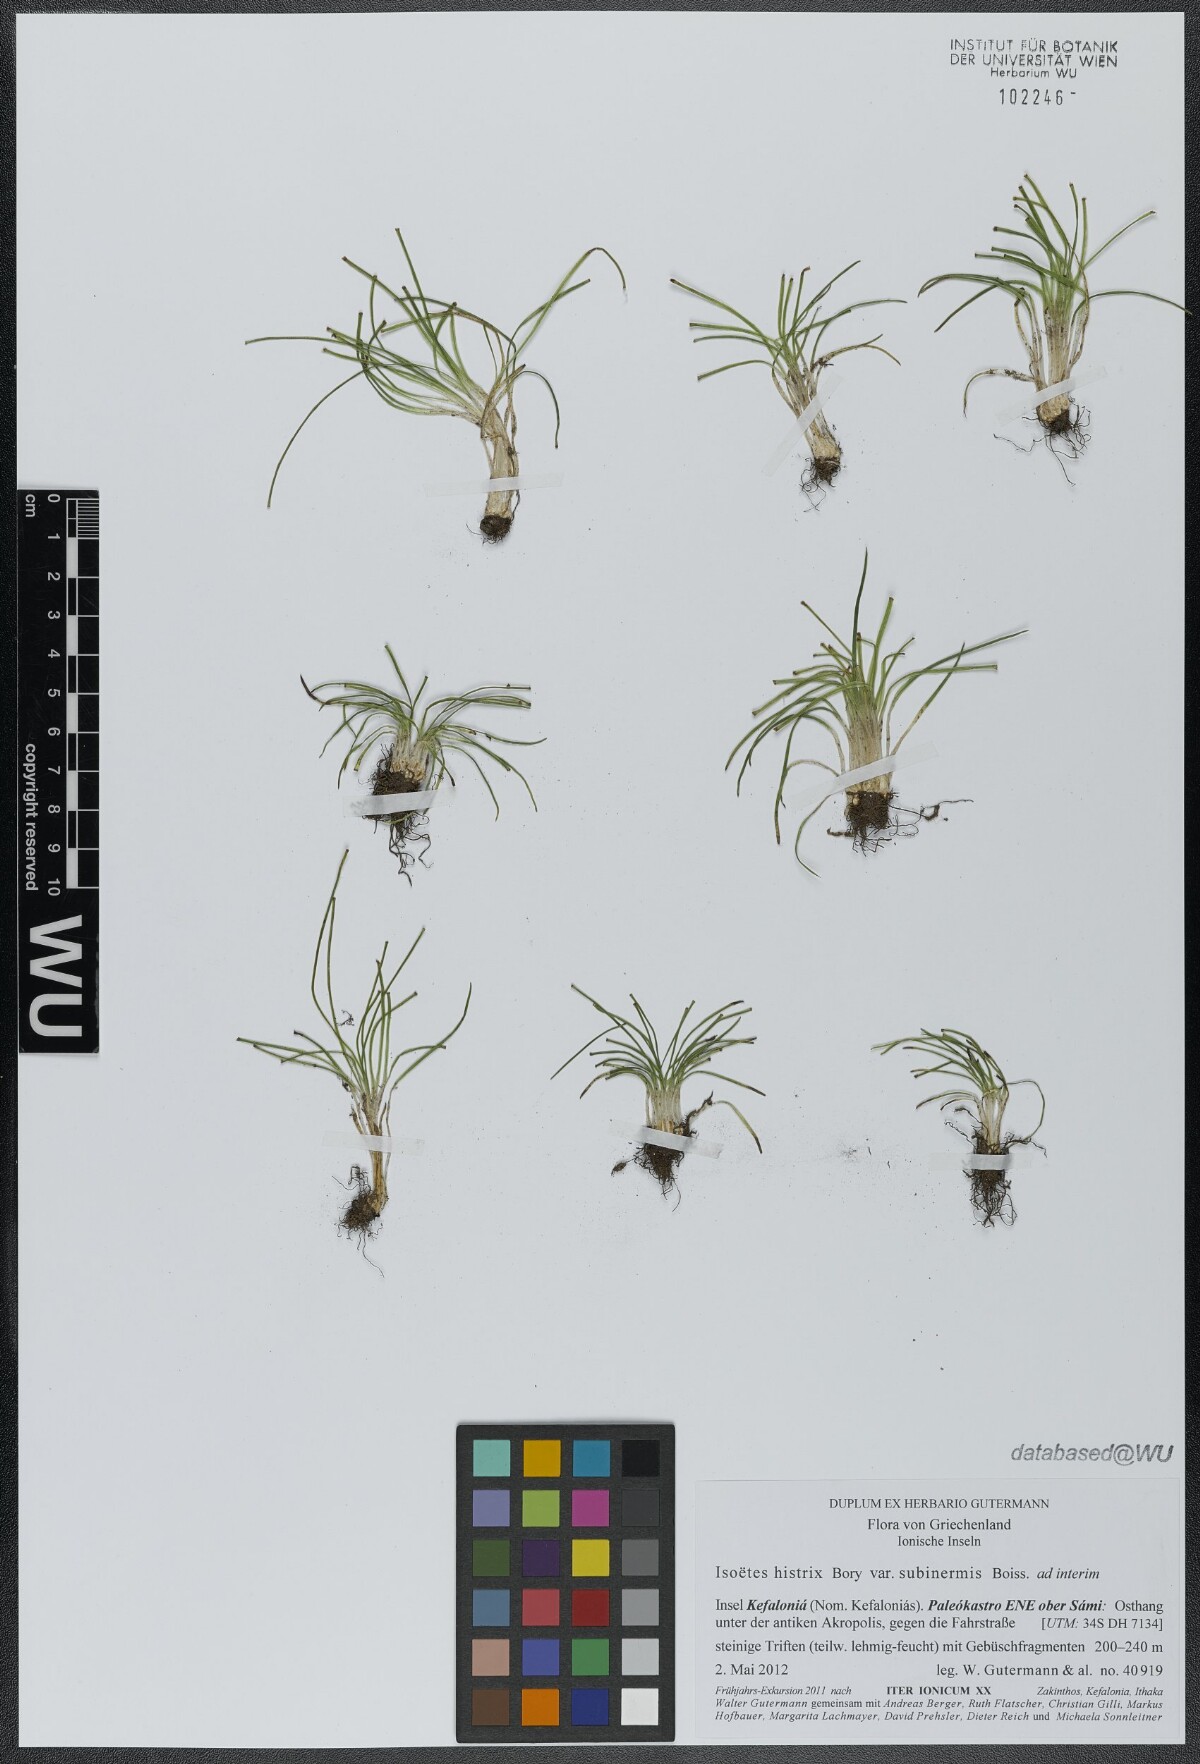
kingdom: Plantae
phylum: Tracheophyta
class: Lycopodiopsida
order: Isoetales
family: Isoetaceae
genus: Isoetes
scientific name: Isoetes histrix
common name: Land quillwort
